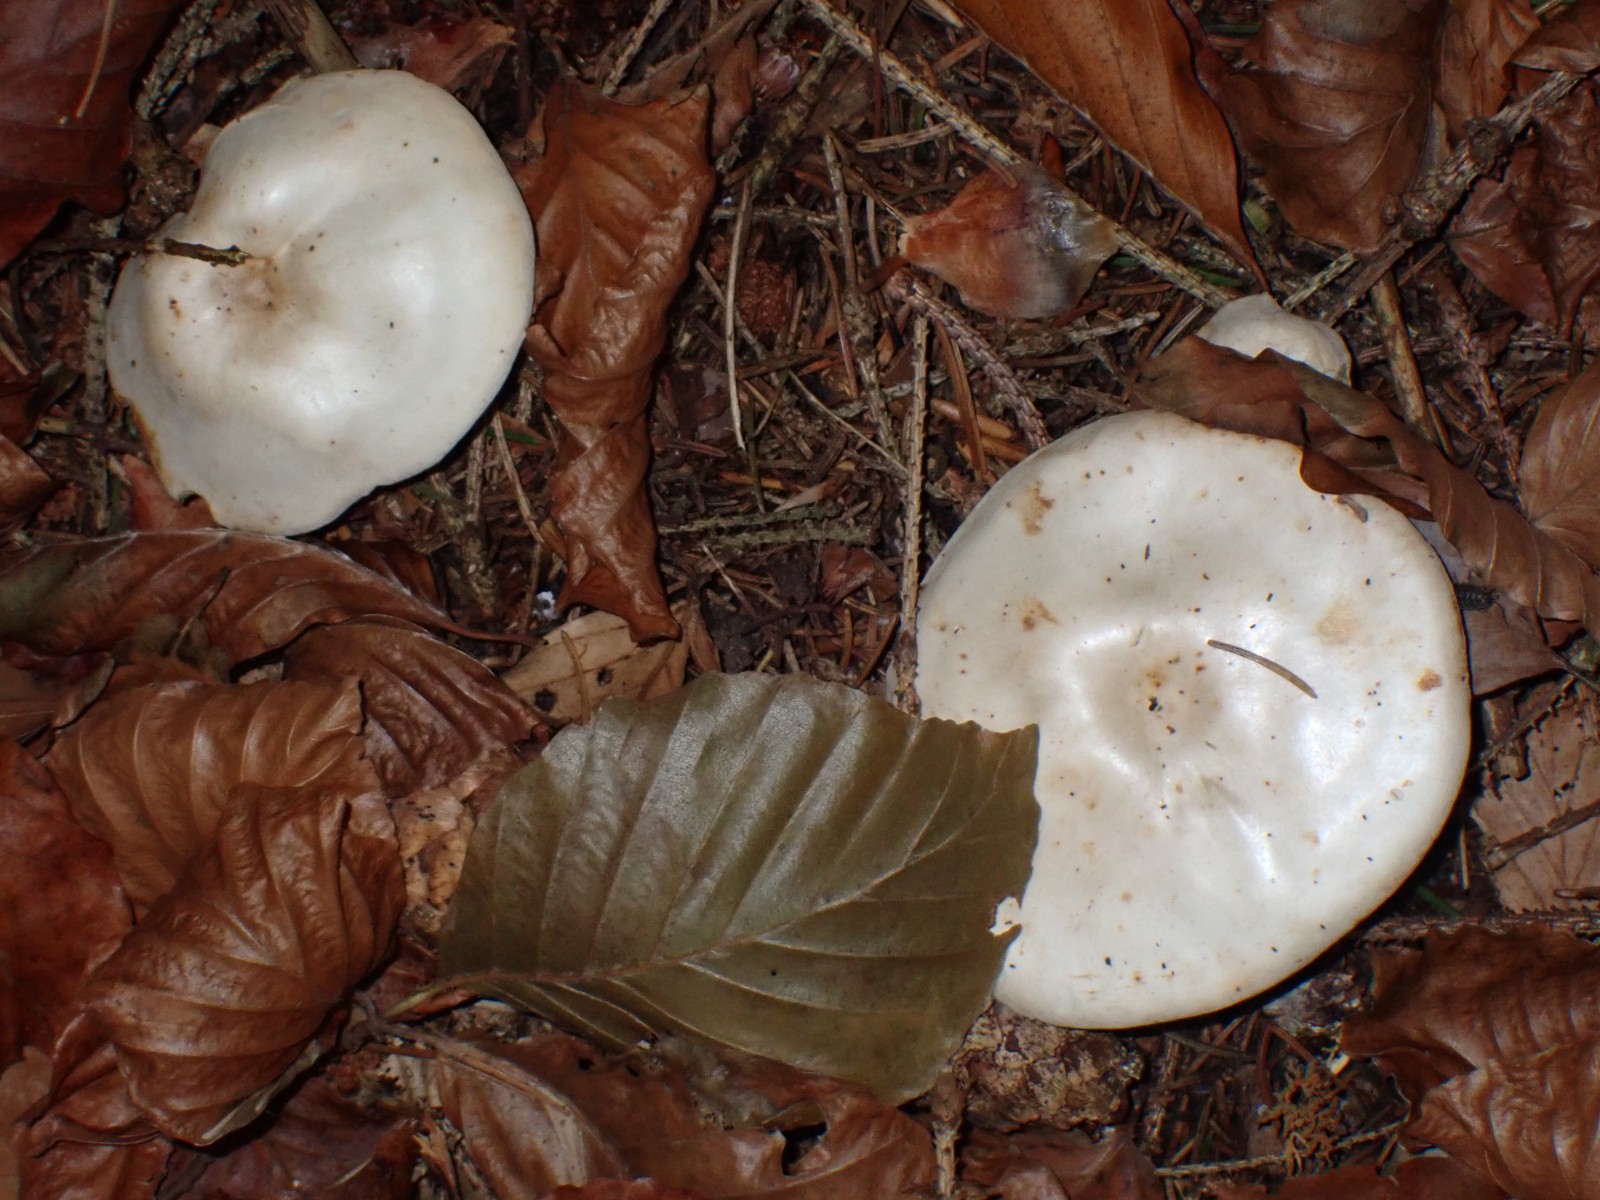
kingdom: Fungi
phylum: Basidiomycota
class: Agaricomycetes
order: Agaricales
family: Tricholomataceae
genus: Clitocybe
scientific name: Clitocybe
